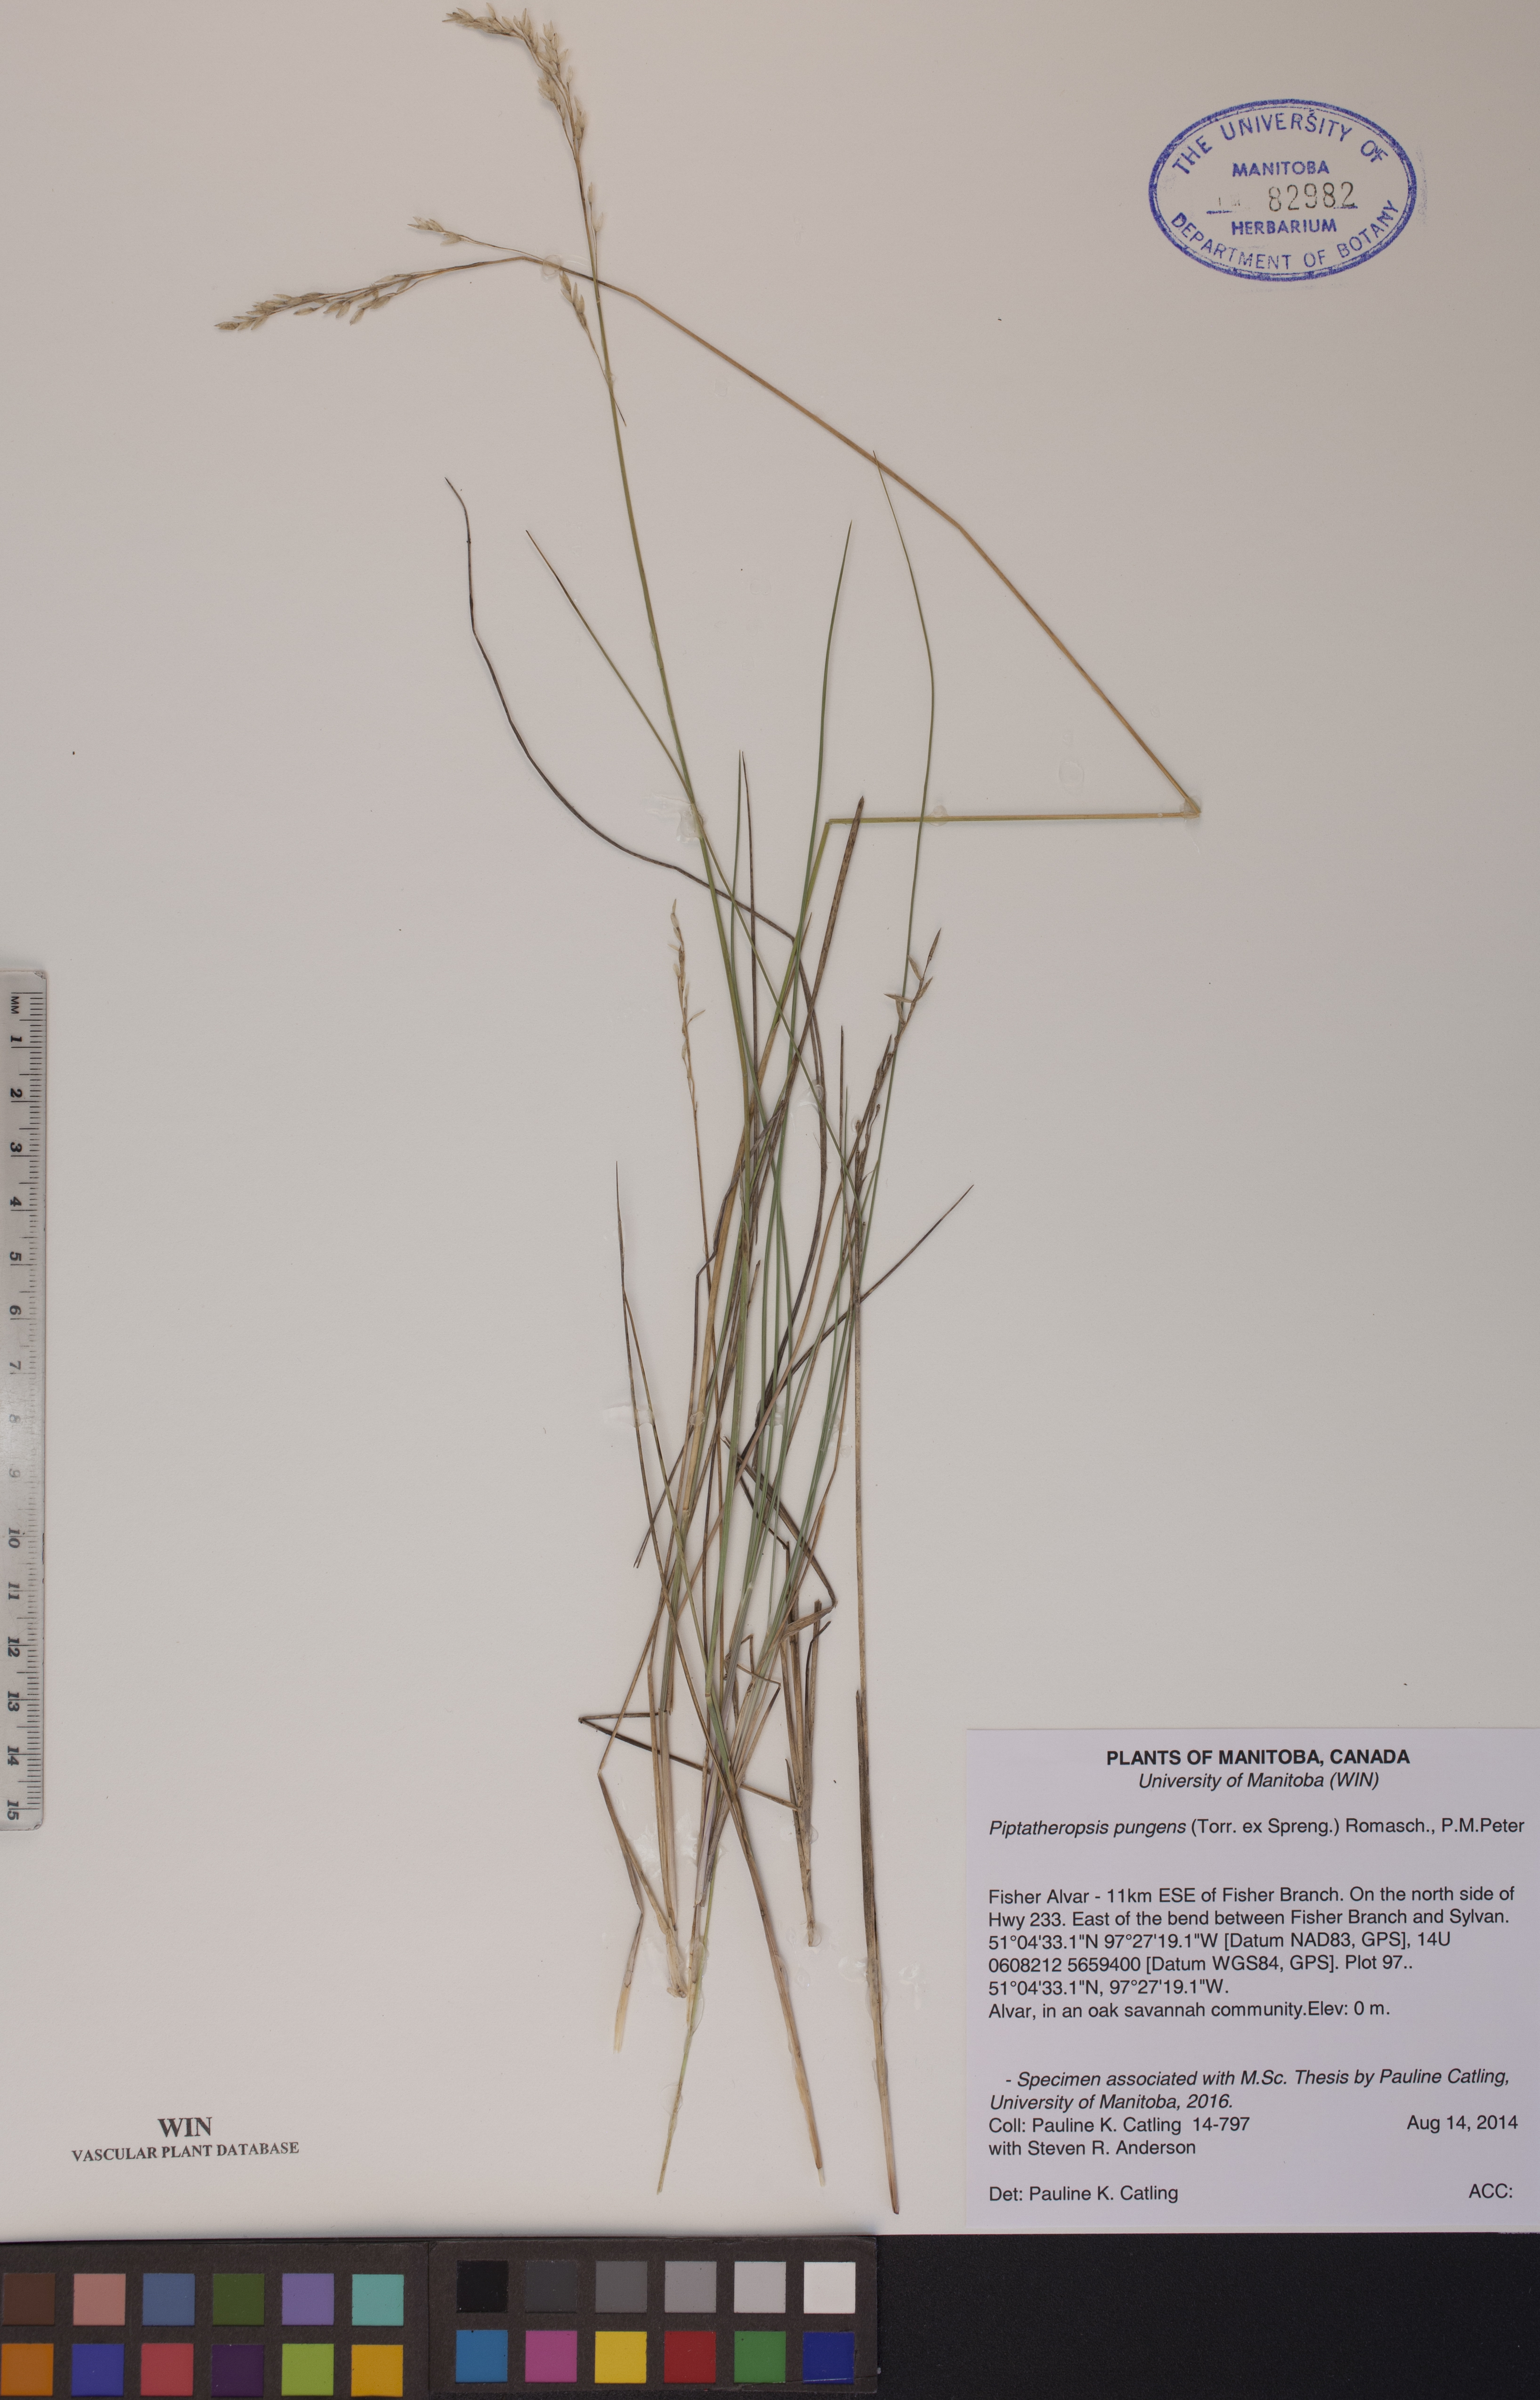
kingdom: Plantae
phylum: Tracheophyta
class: Liliopsida
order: Poales
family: Poaceae
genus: Piptatheropsis
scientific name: Piptatheropsis pungens
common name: Northern ricegrass
